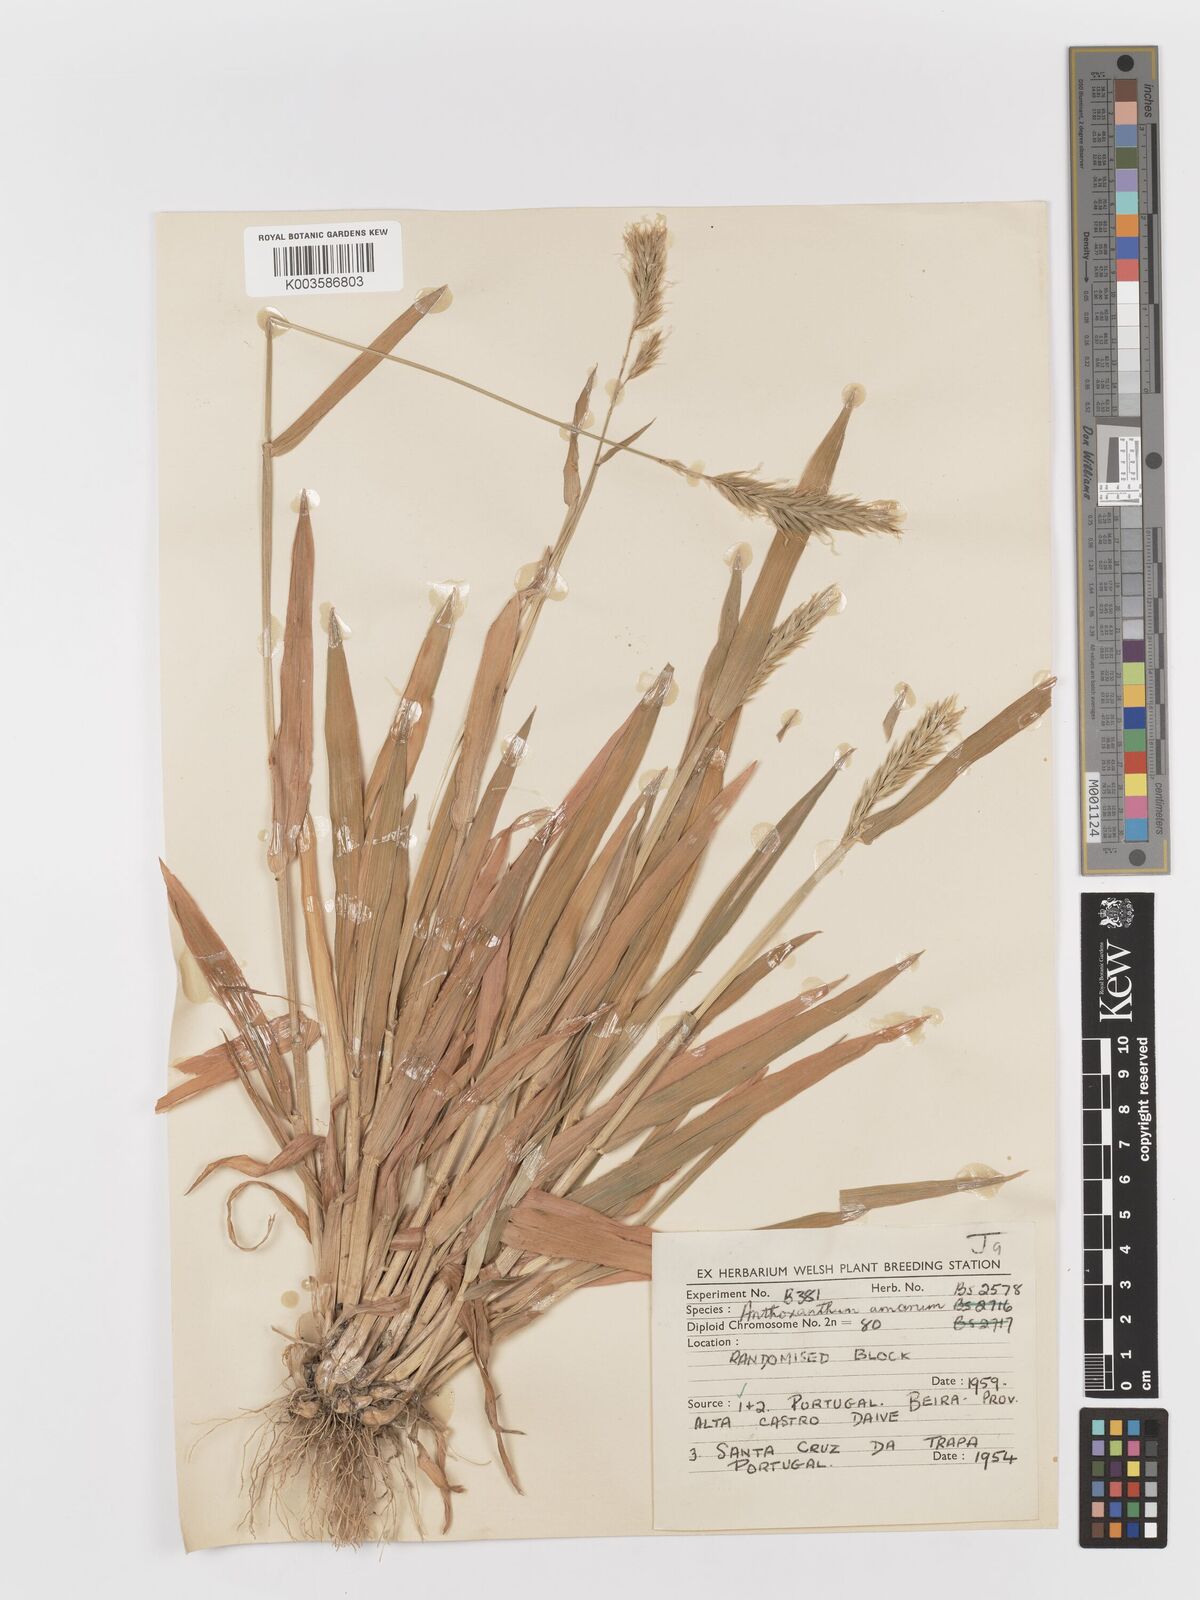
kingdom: Plantae
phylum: Tracheophyta
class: Liliopsida
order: Poales
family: Poaceae
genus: Anthoxanthum
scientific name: Anthoxanthum amarum
